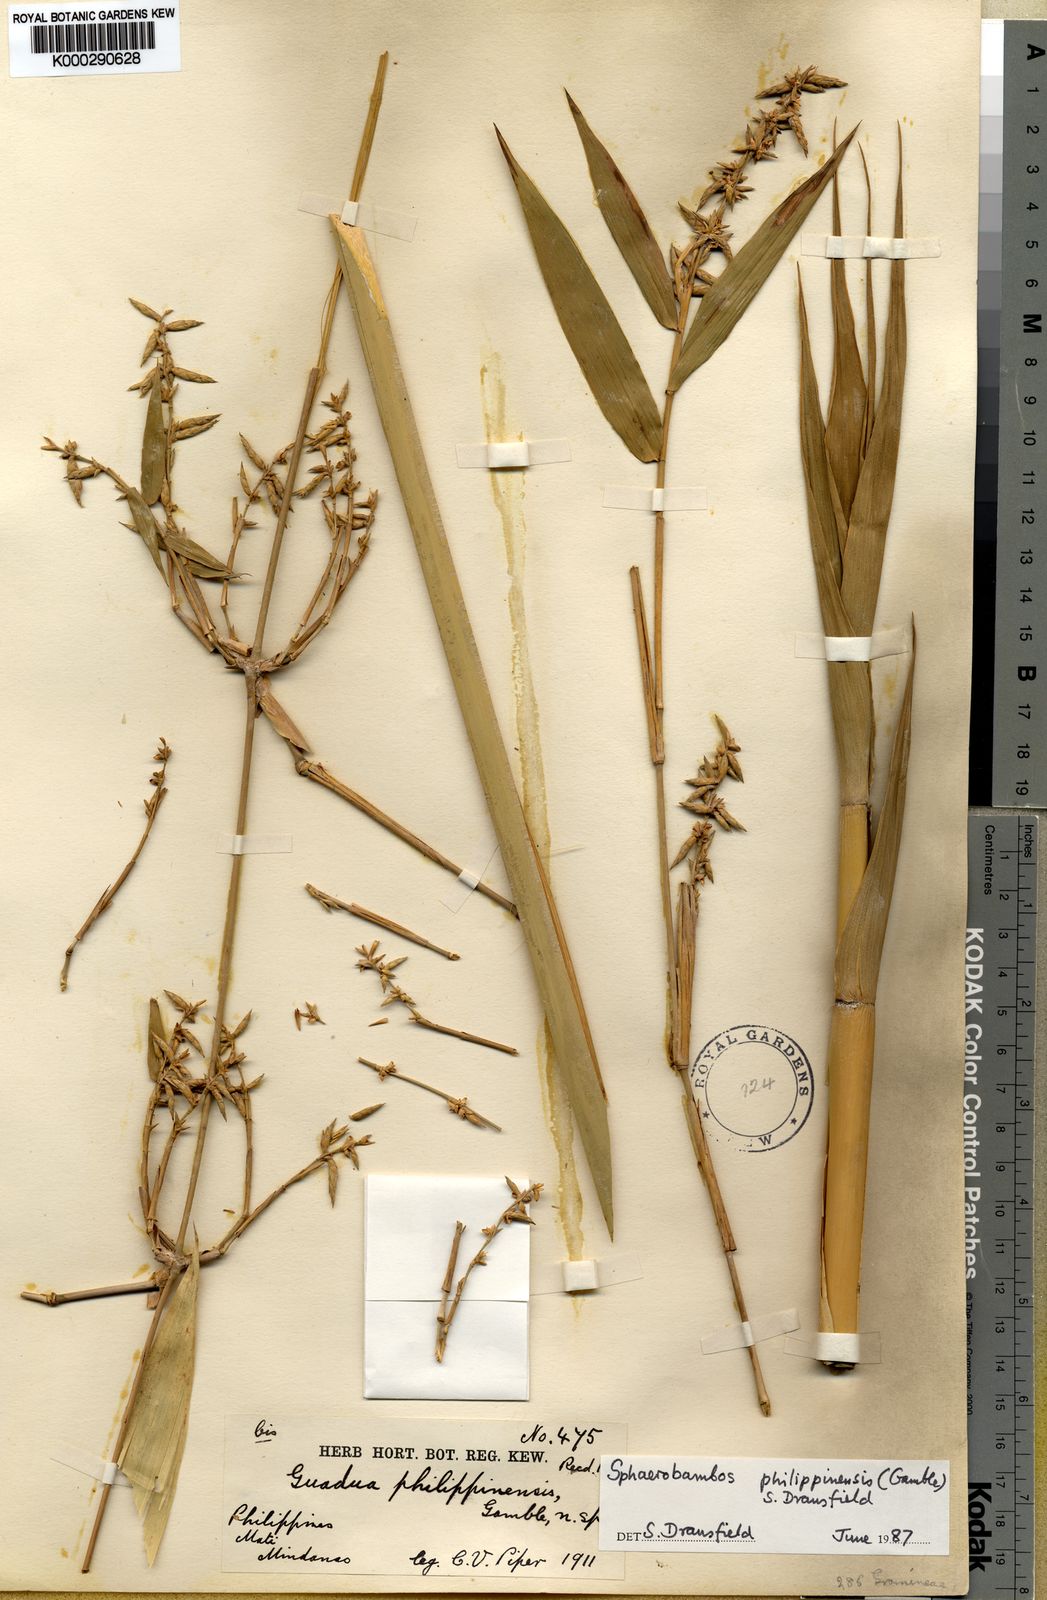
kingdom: Plantae
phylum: Tracheophyta
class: Liliopsida
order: Poales
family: Poaceae
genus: Sphaerobambos
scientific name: Sphaerobambos philippinensis
